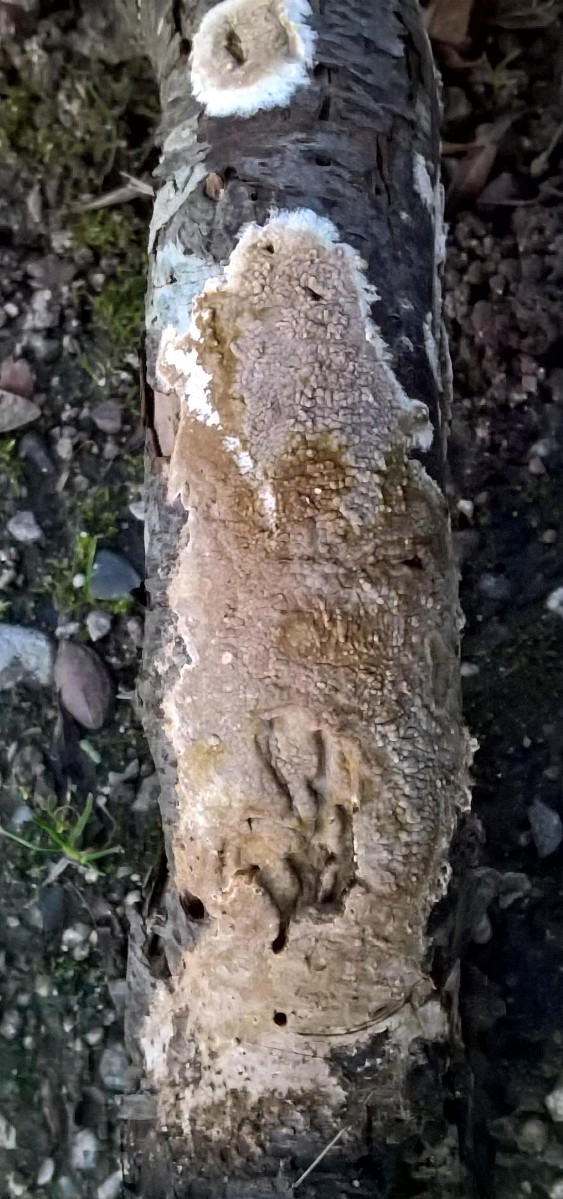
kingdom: Fungi
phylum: Basidiomycota
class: Agaricomycetes
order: Boletales
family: Coniophoraceae
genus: Coniophora
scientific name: Coniophora puteana
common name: gul tømmersvamp
